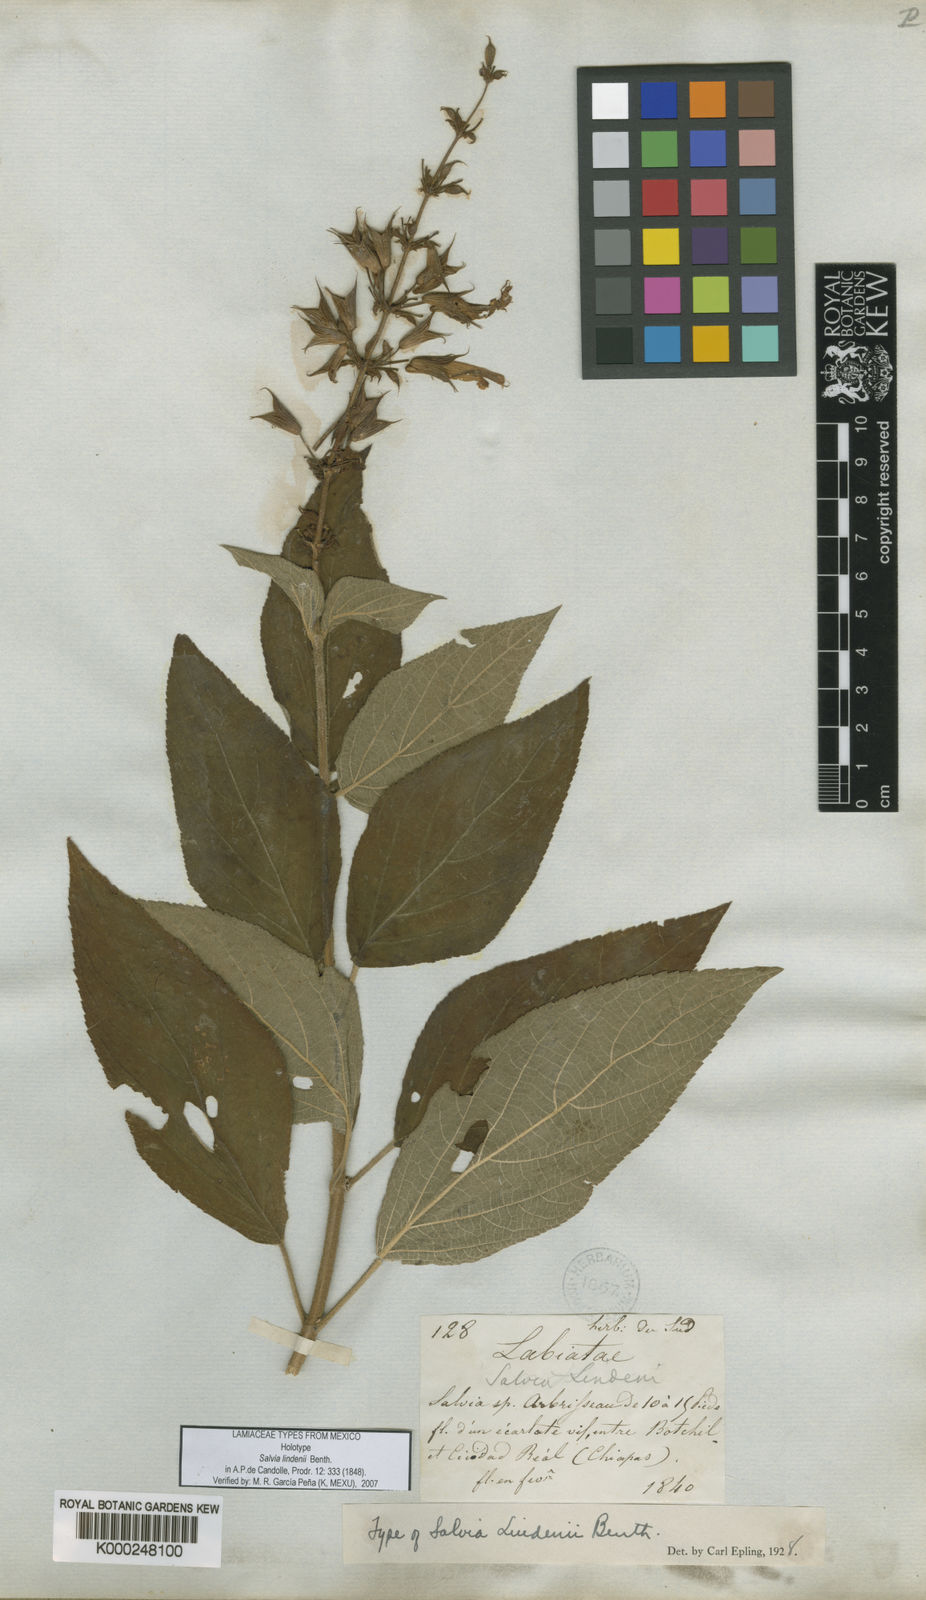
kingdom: Plantae
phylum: Tracheophyta
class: Magnoliopsida
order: Lamiales
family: Lamiaceae
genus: Salvia
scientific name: Salvia karwinskii
